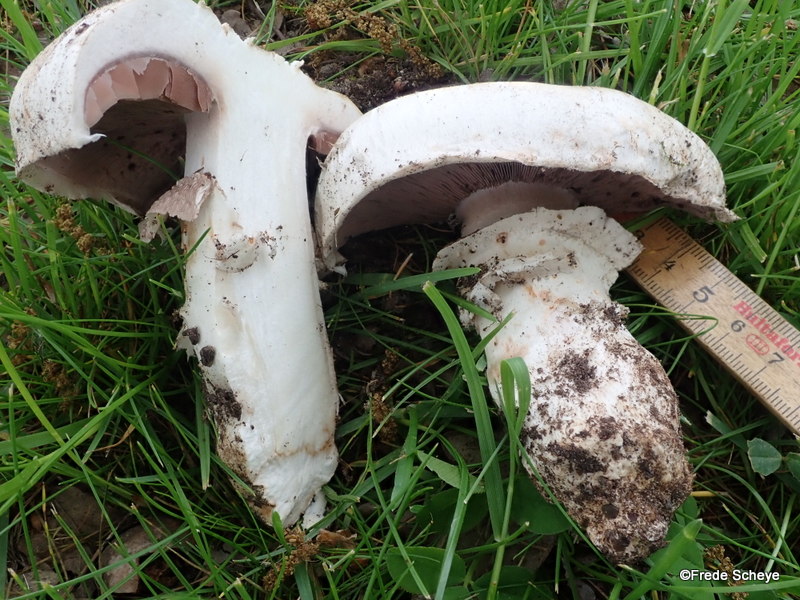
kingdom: Fungi
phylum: Basidiomycota
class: Agaricomycetes
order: Agaricales
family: Agaricaceae
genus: Agaricus
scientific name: Agaricus bitorquis
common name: vej-champignon
